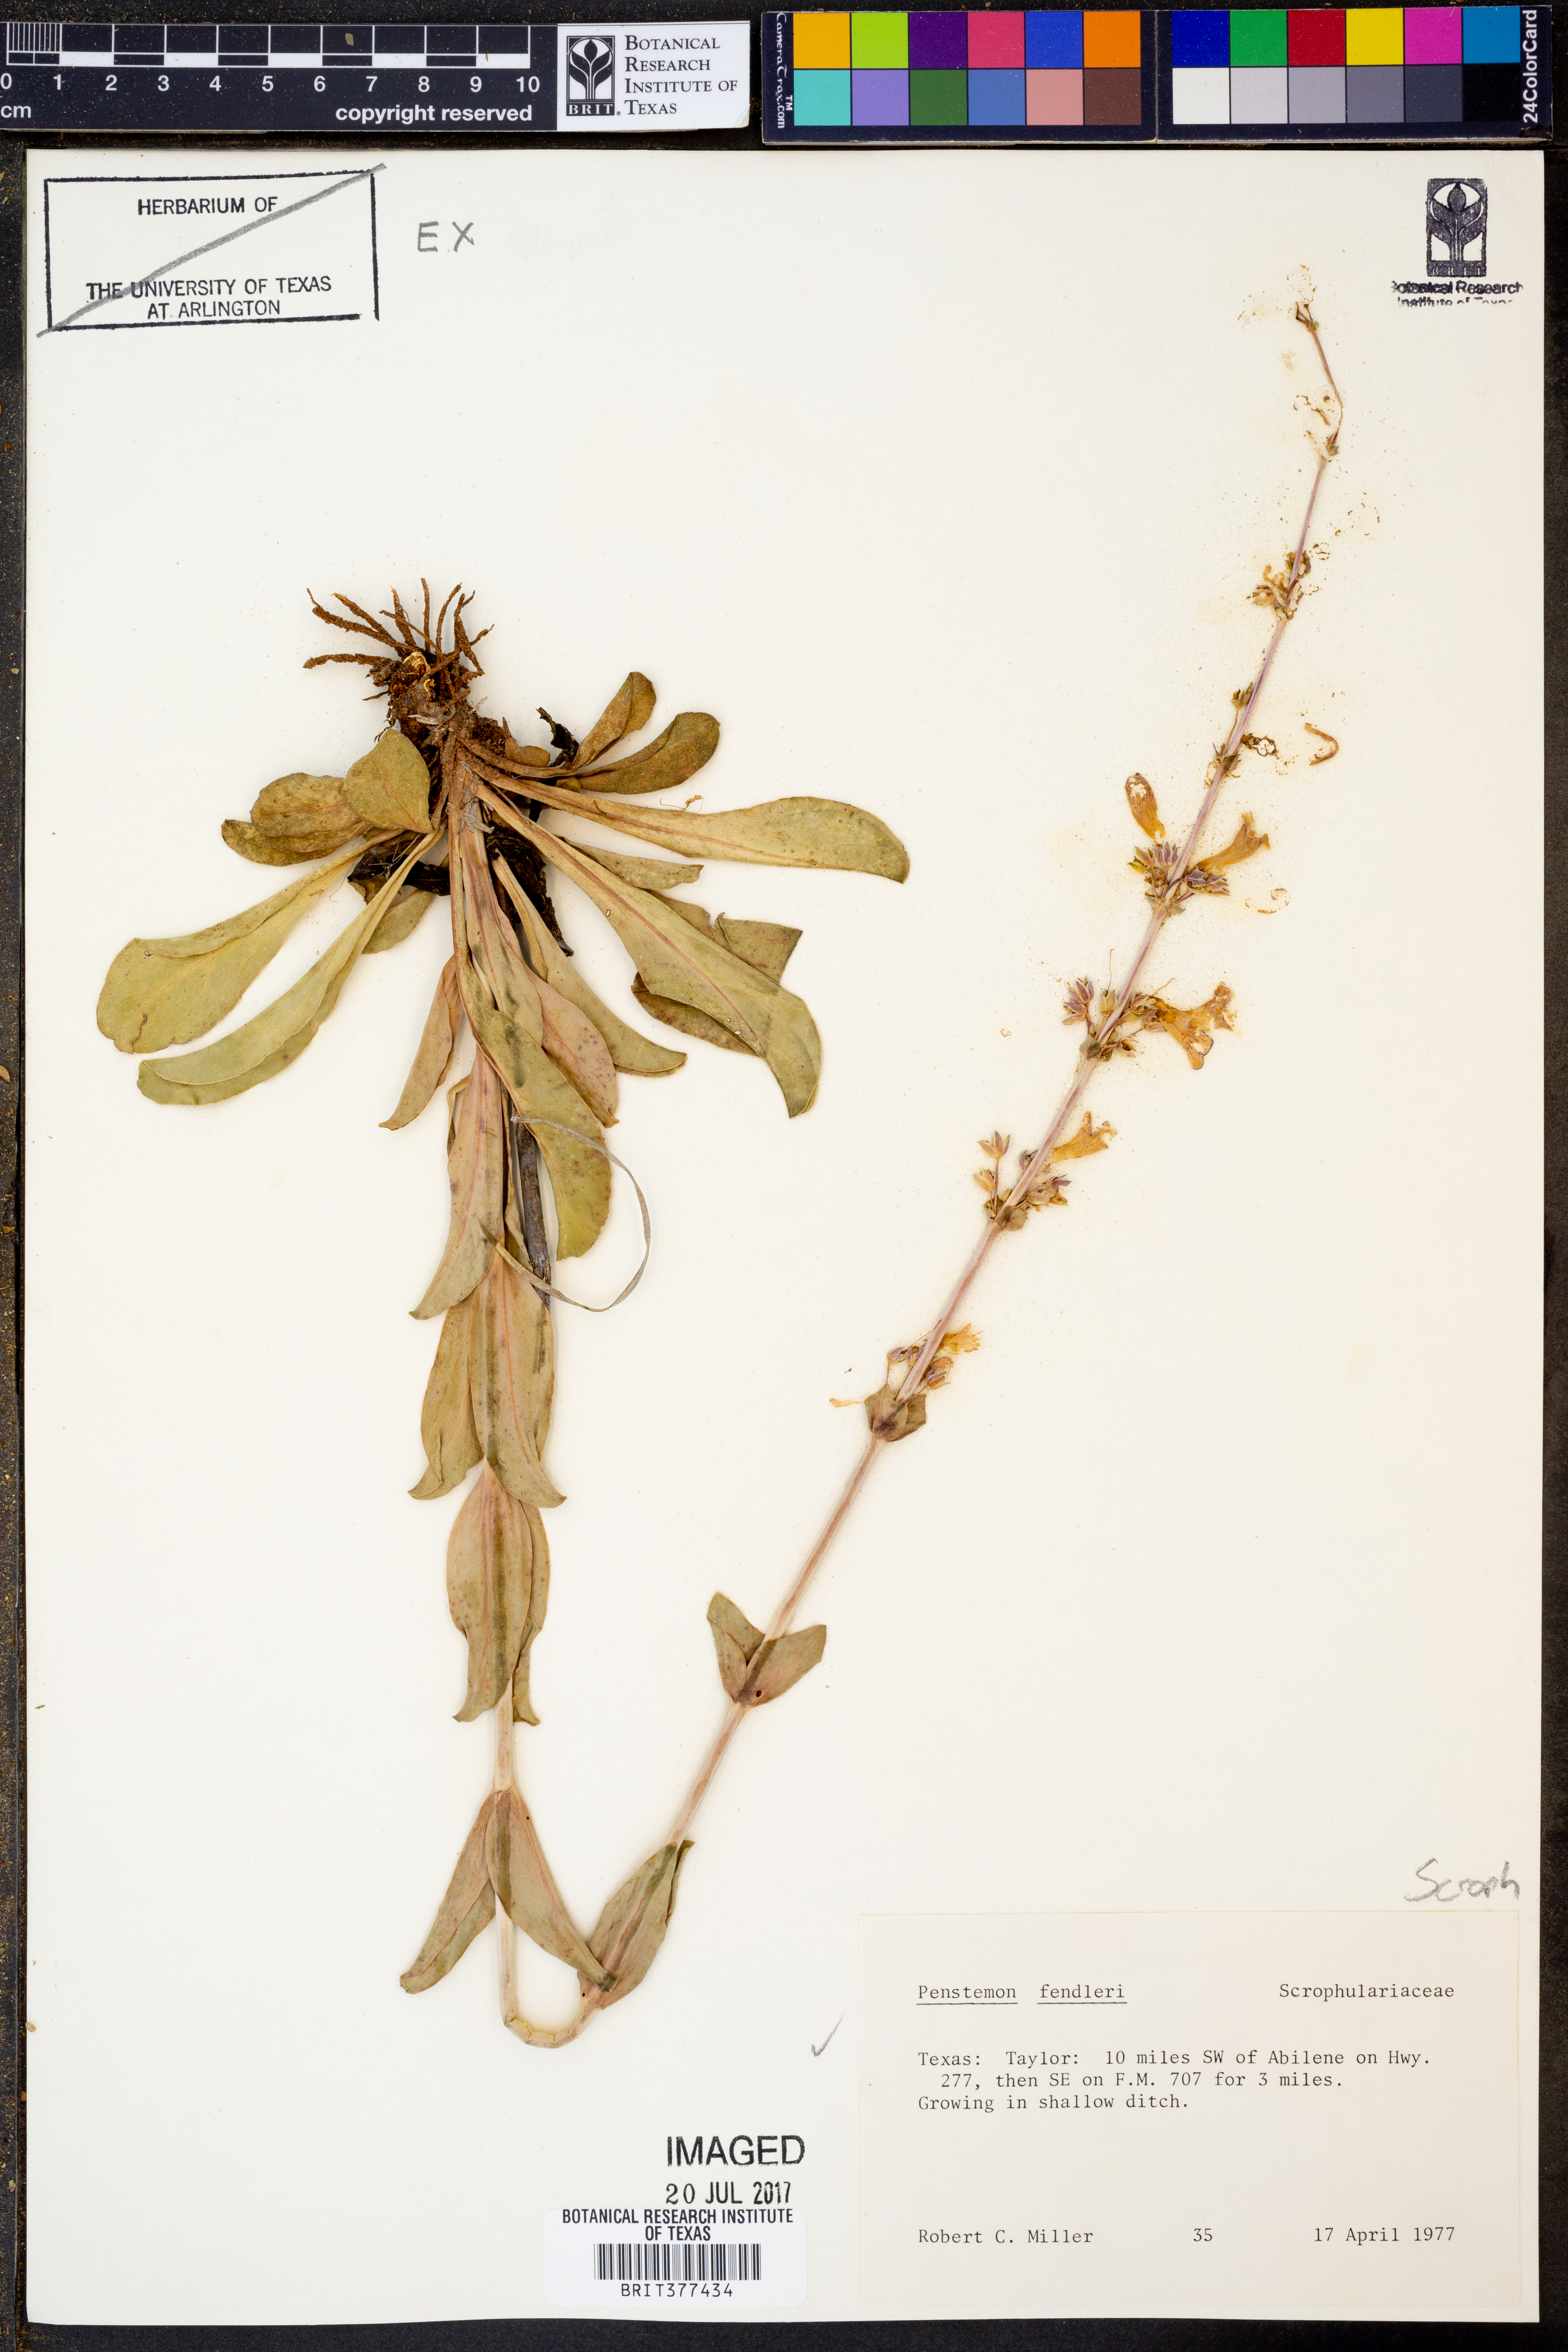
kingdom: Plantae
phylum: Tracheophyta
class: Magnoliopsida
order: Lamiales
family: Plantaginaceae
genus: Penstemon
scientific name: Penstemon fendleri
